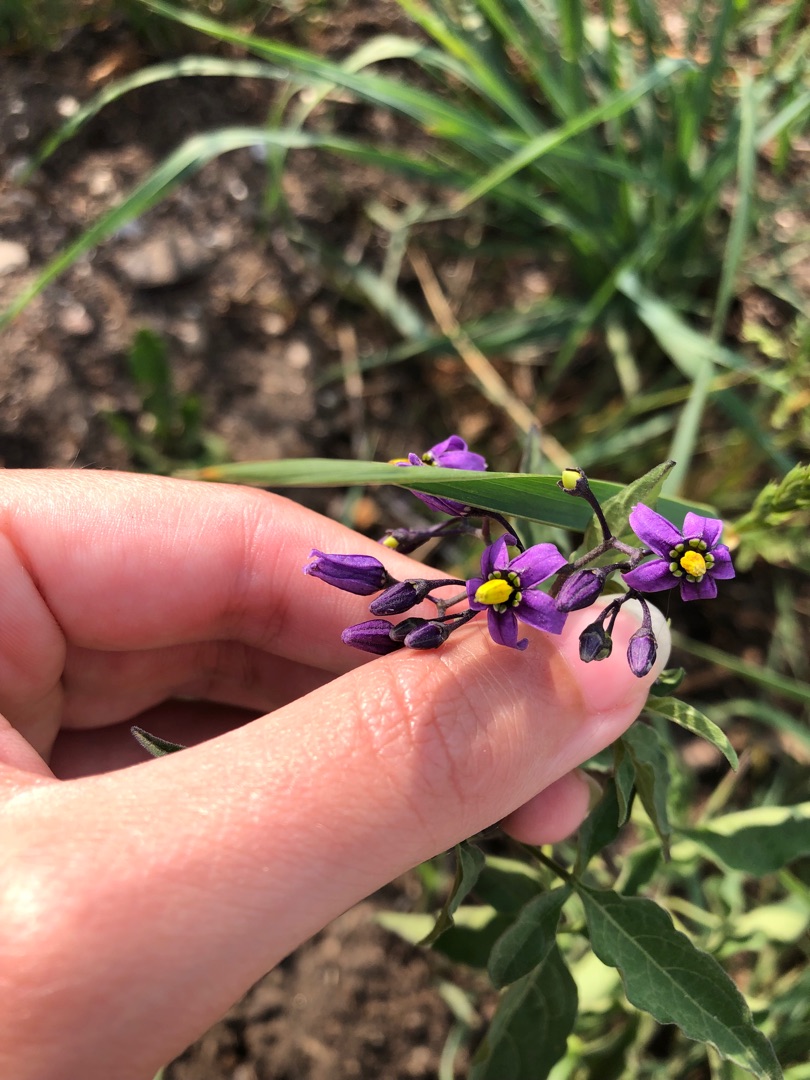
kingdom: Plantae
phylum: Tracheophyta
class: Magnoliopsida
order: Solanales
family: Solanaceae
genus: Solanum
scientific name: Solanum dulcamara
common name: Bittersød natskygge
